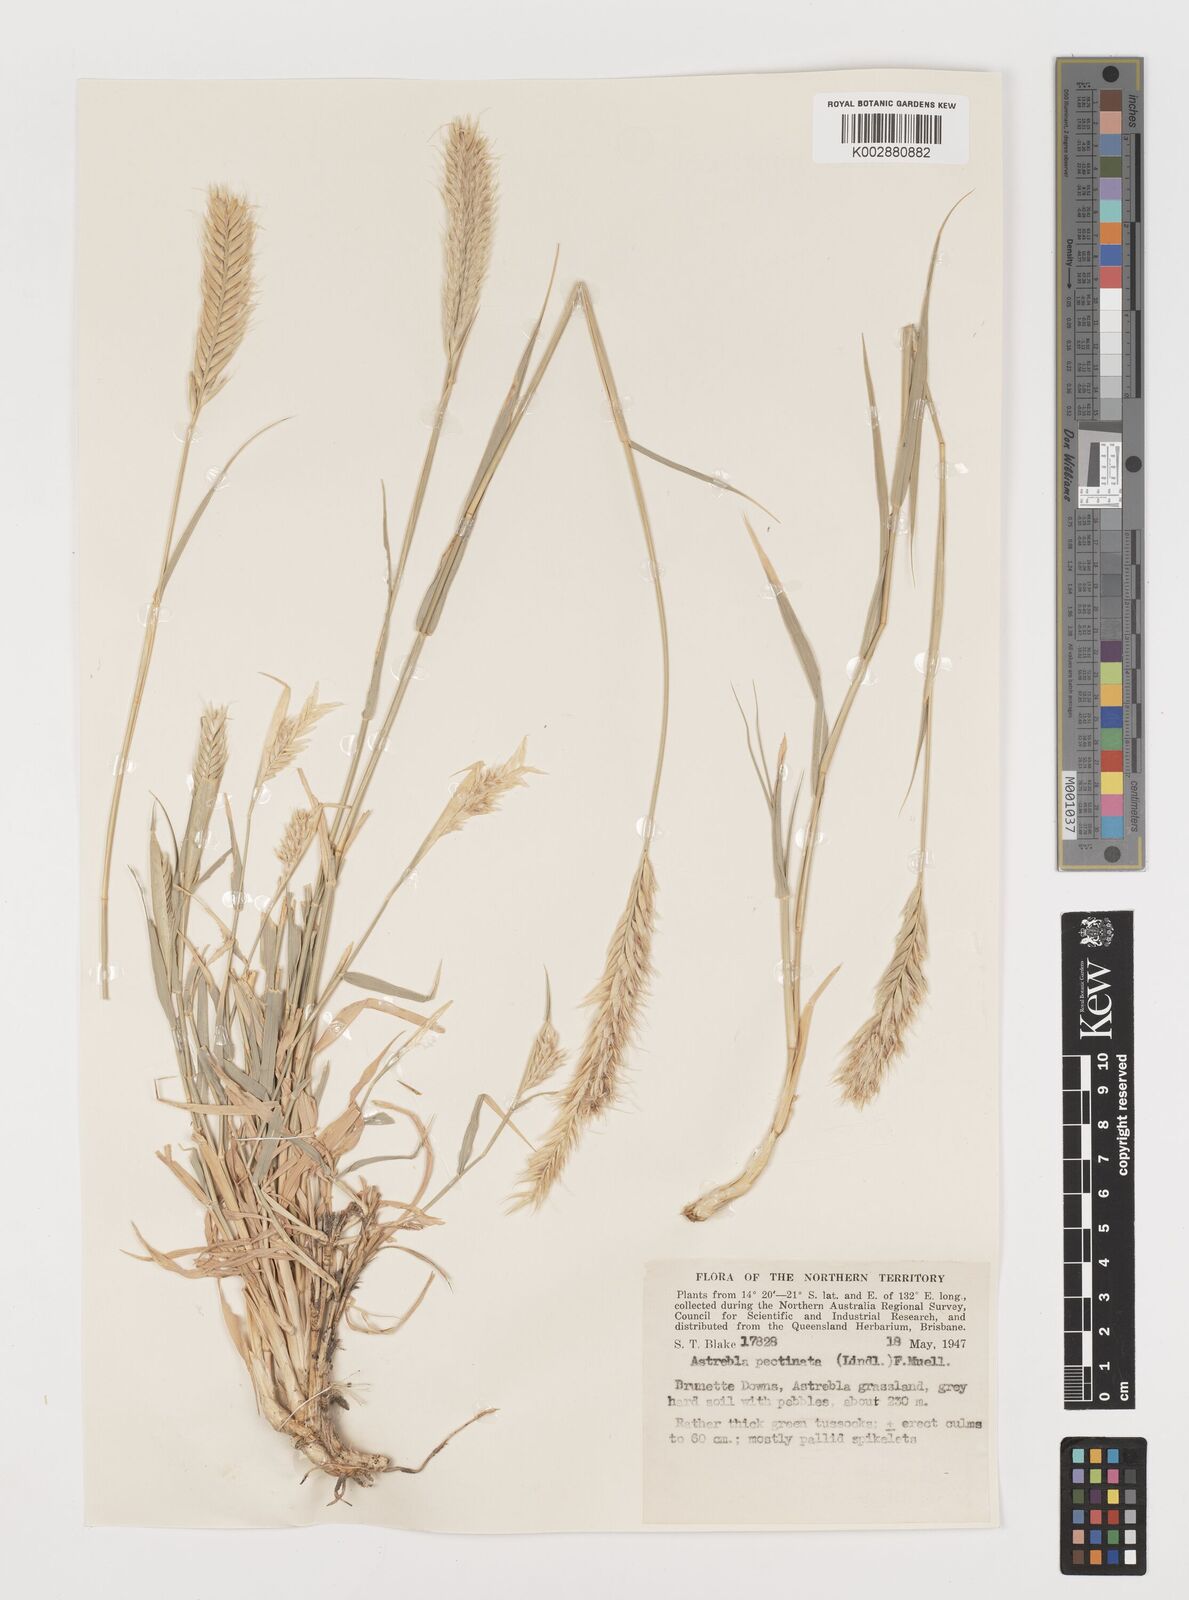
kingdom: Plantae
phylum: Tracheophyta
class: Liliopsida
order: Poales
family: Poaceae
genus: Astrebla
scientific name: Astrebla pectinata
